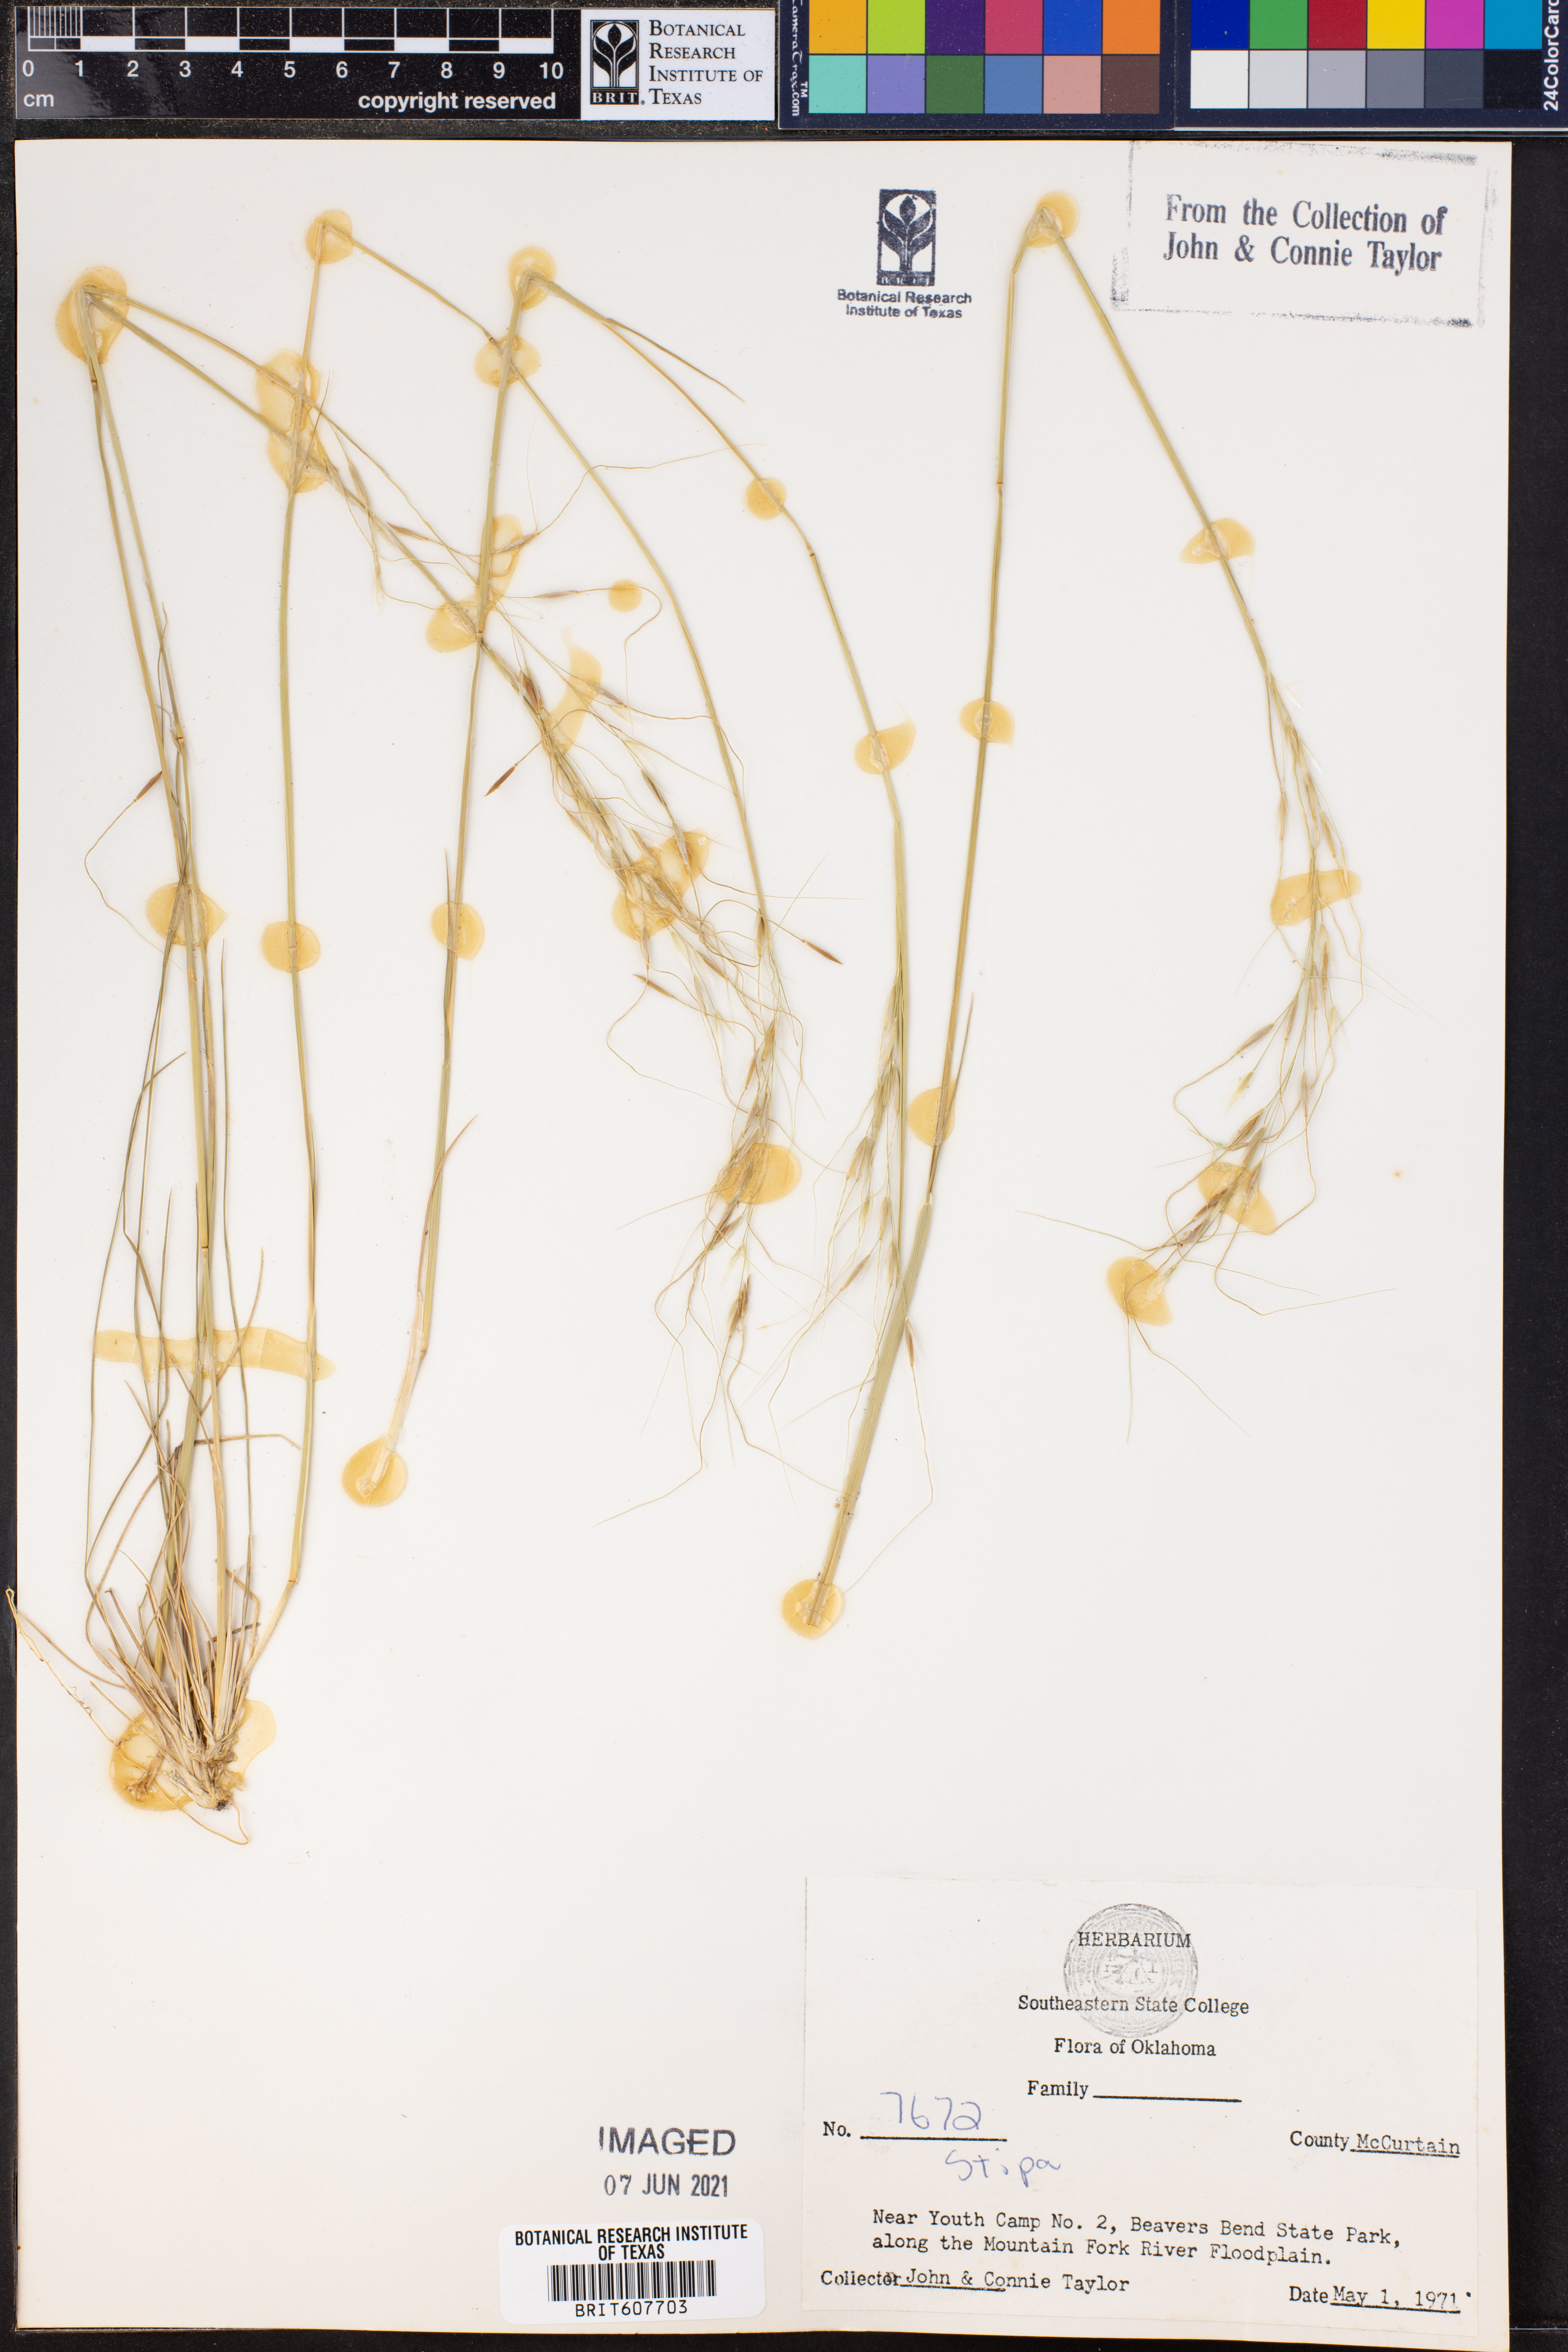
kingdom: Plantae
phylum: Tracheophyta
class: Liliopsida
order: Poales
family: Poaceae
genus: Stipa
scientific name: Stipa
